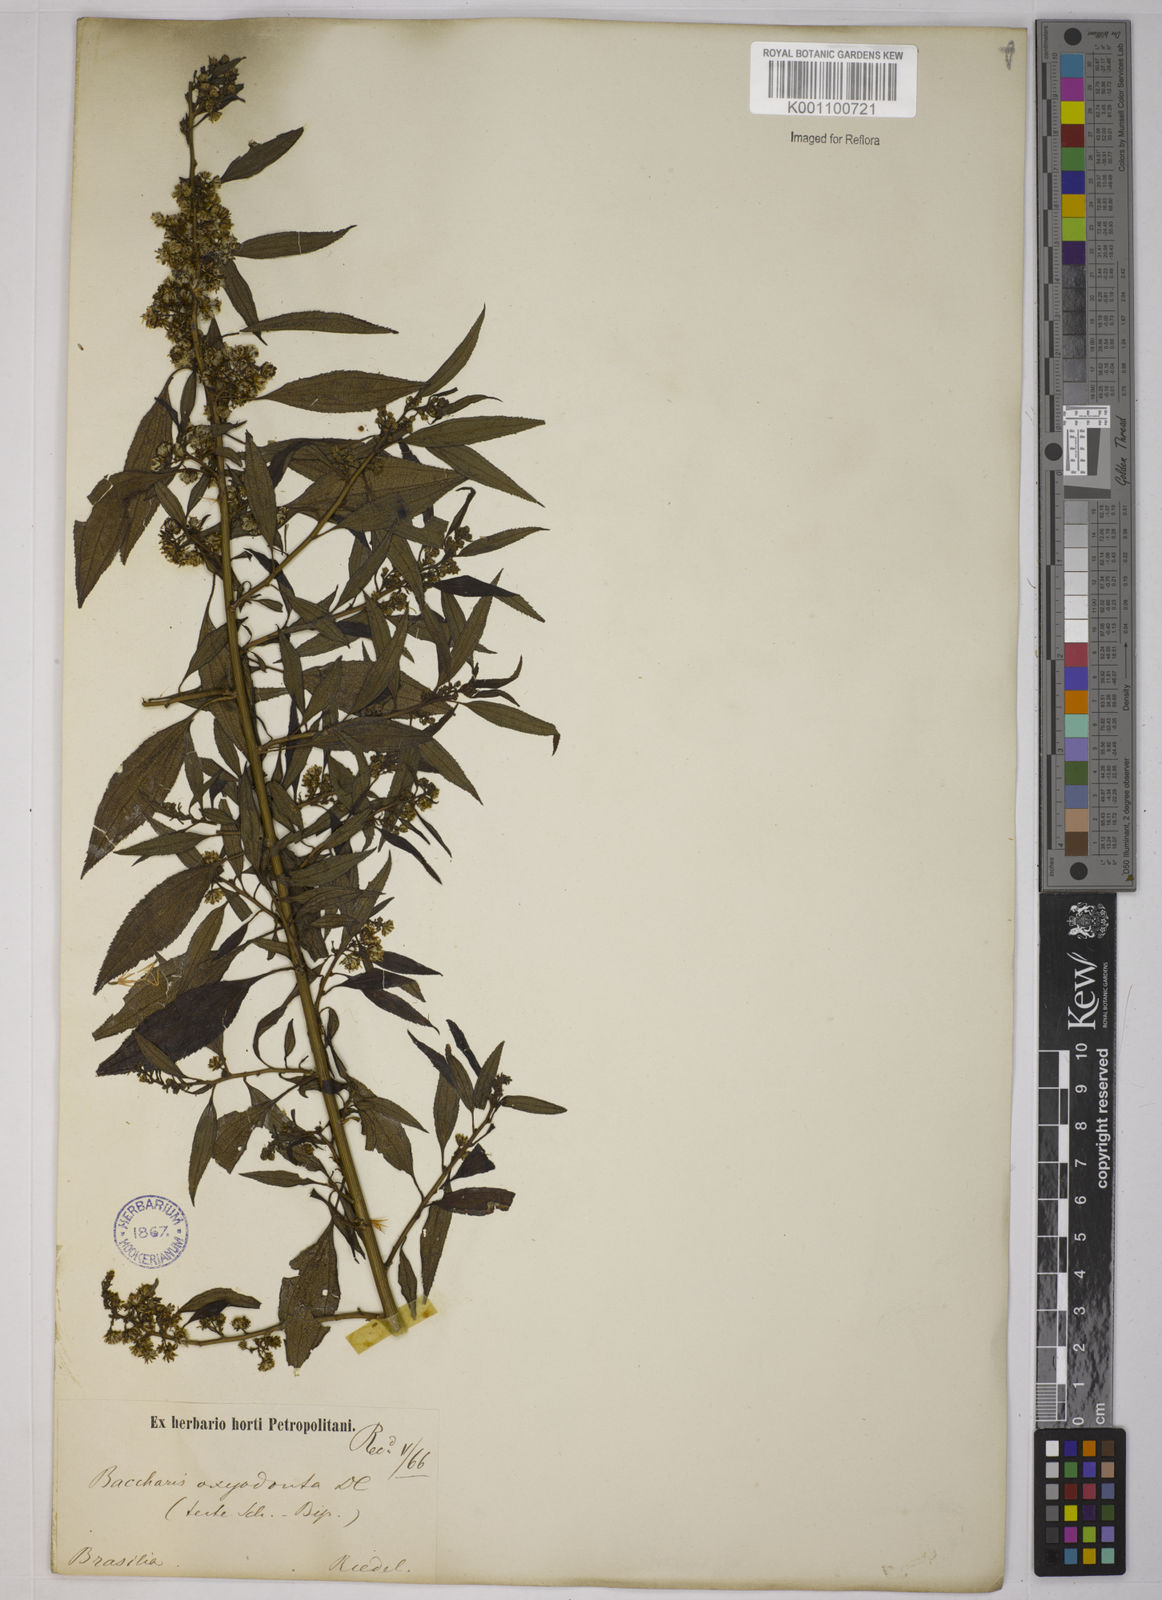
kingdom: Plantae
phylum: Tracheophyta
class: Magnoliopsida
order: Asterales
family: Asteraceae
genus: Baccharis
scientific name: Baccharis oxyodonta
